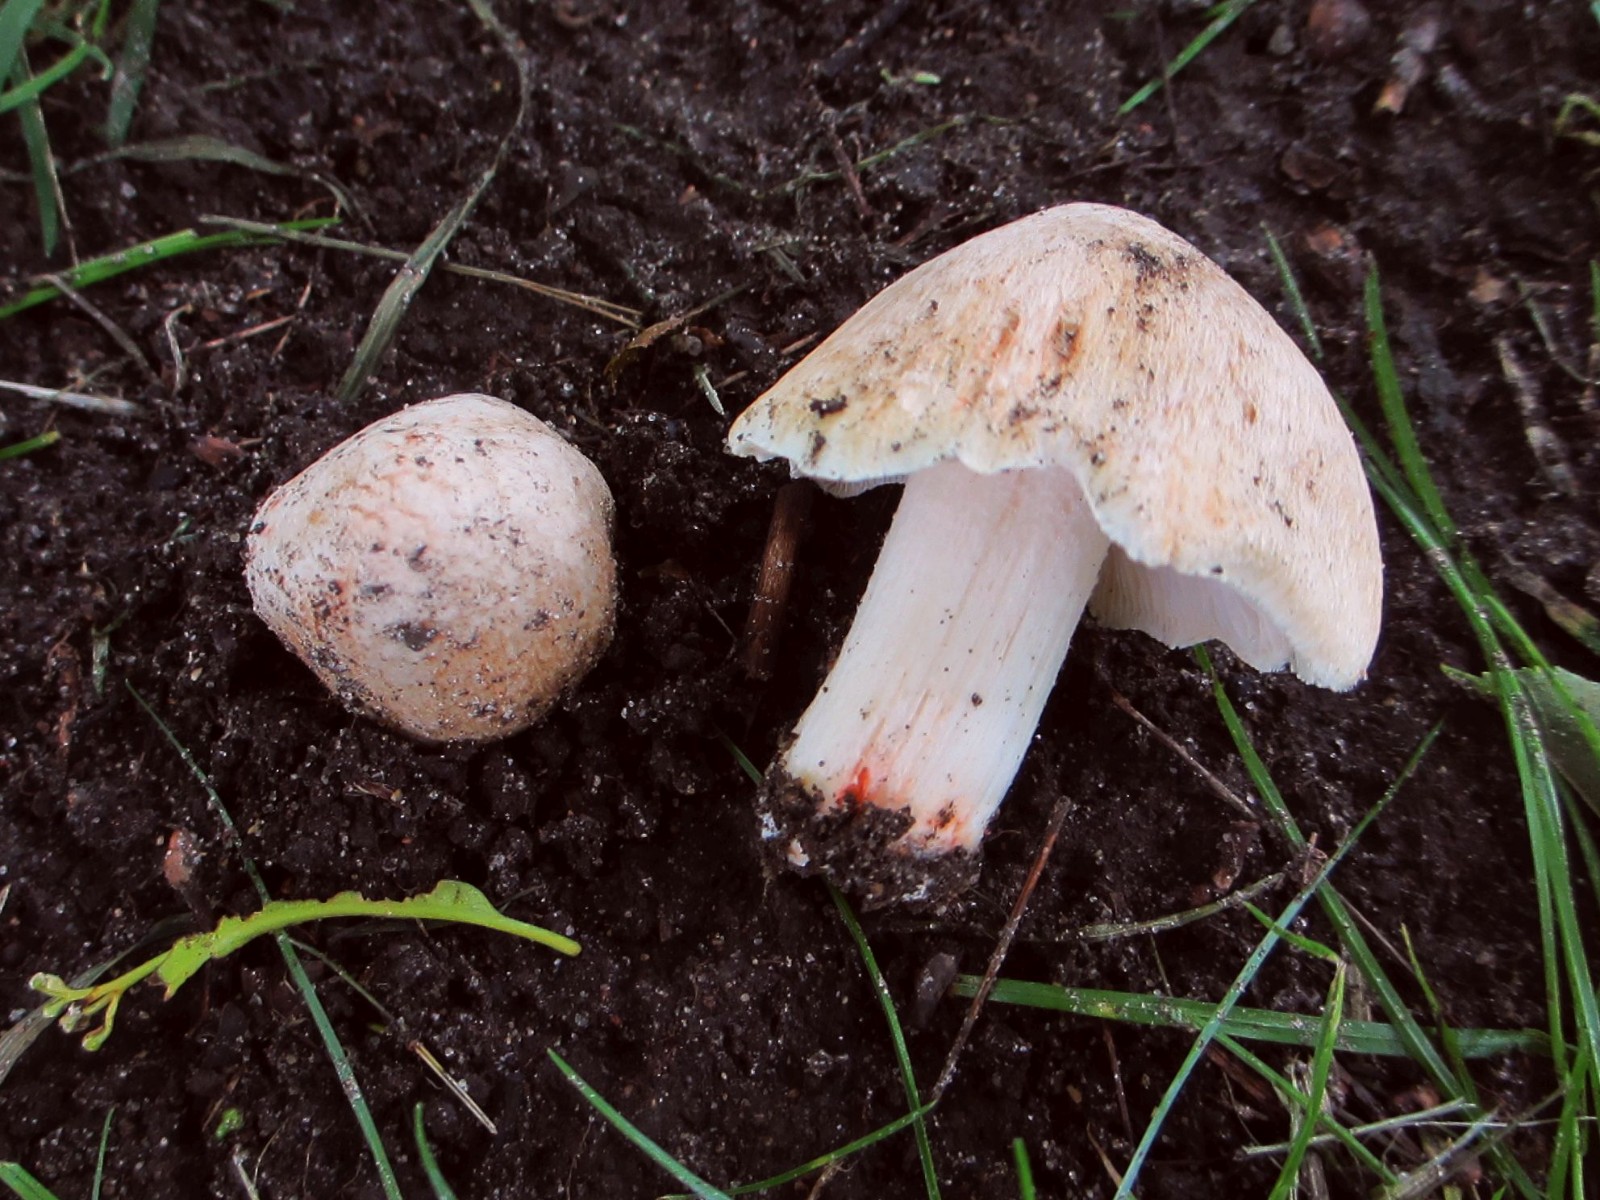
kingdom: Fungi
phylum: Basidiomycota
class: Agaricomycetes
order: Agaricales
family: Inocybaceae
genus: Inosperma
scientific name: Inosperma erubescens
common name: giftig trævlhat
